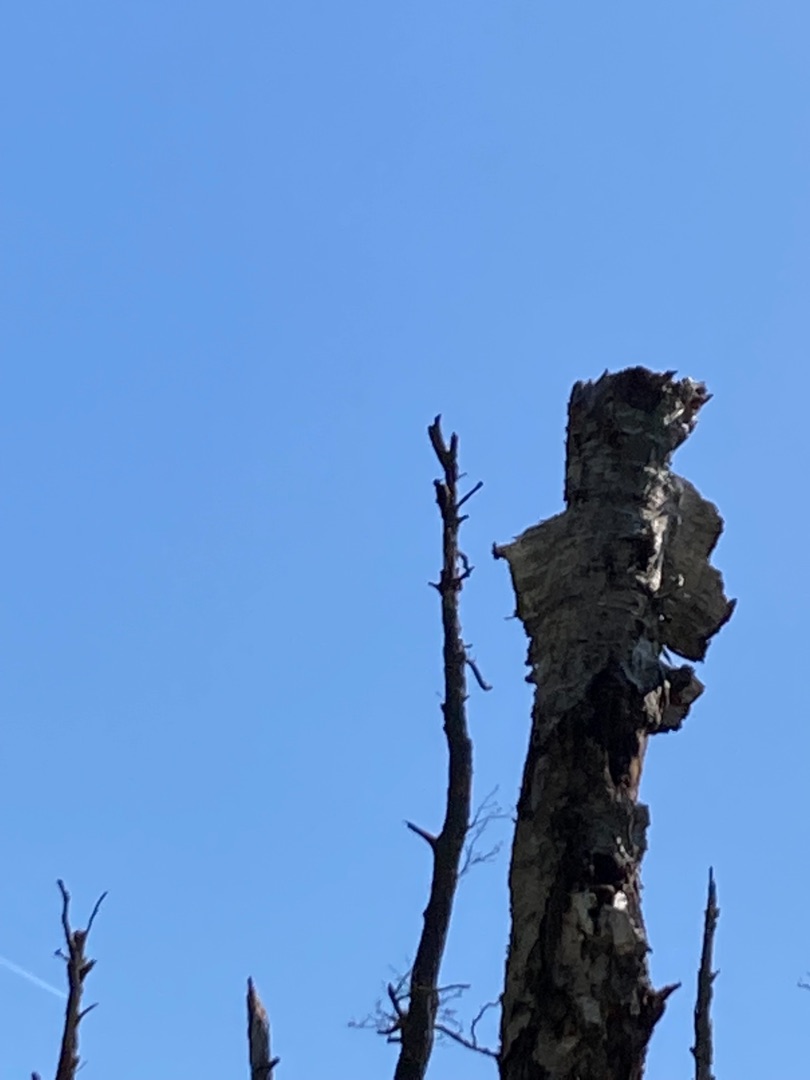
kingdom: Animalia
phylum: Chordata
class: Aves
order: Piciformes
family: Picidae
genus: Dryocopus
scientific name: Dryocopus martius
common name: Sortspætte
